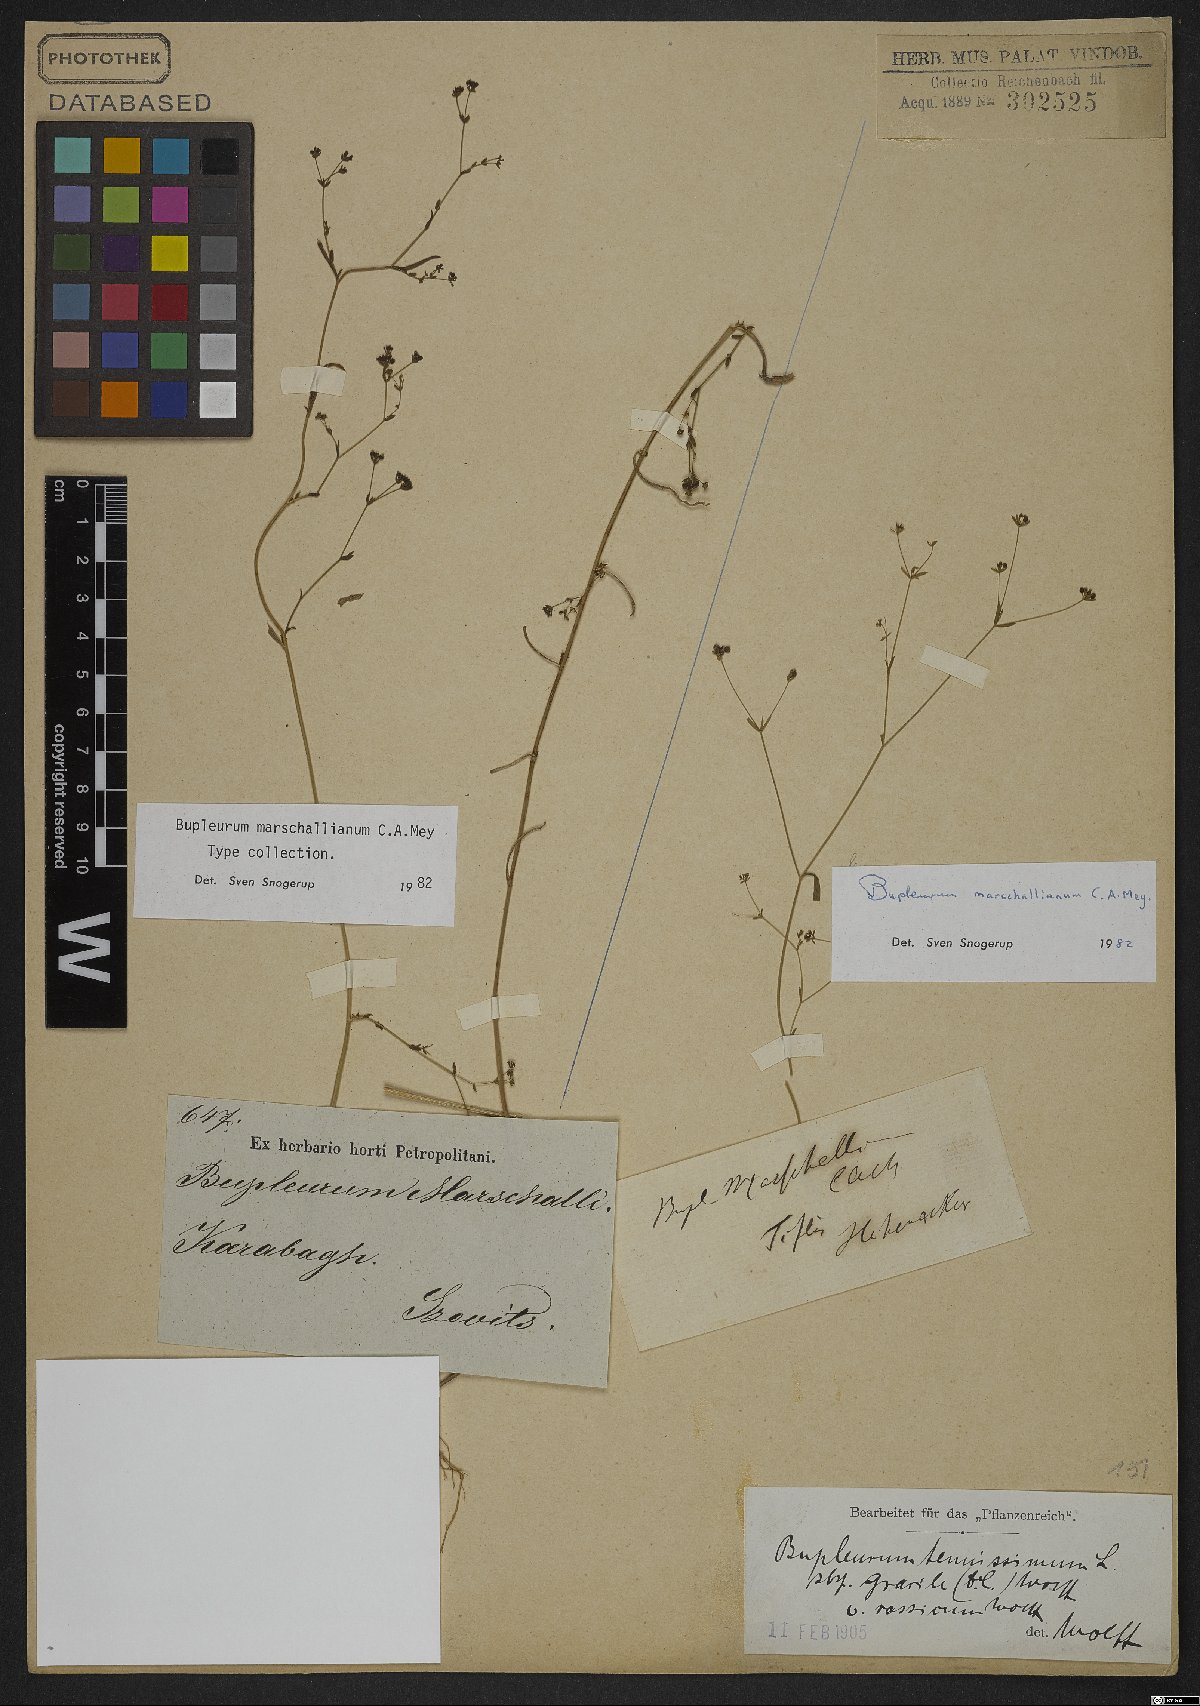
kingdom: Plantae
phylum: Tracheophyta
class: Magnoliopsida
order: Apiales
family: Apiaceae
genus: Bupleurum
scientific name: Bupleurum marschallianum
